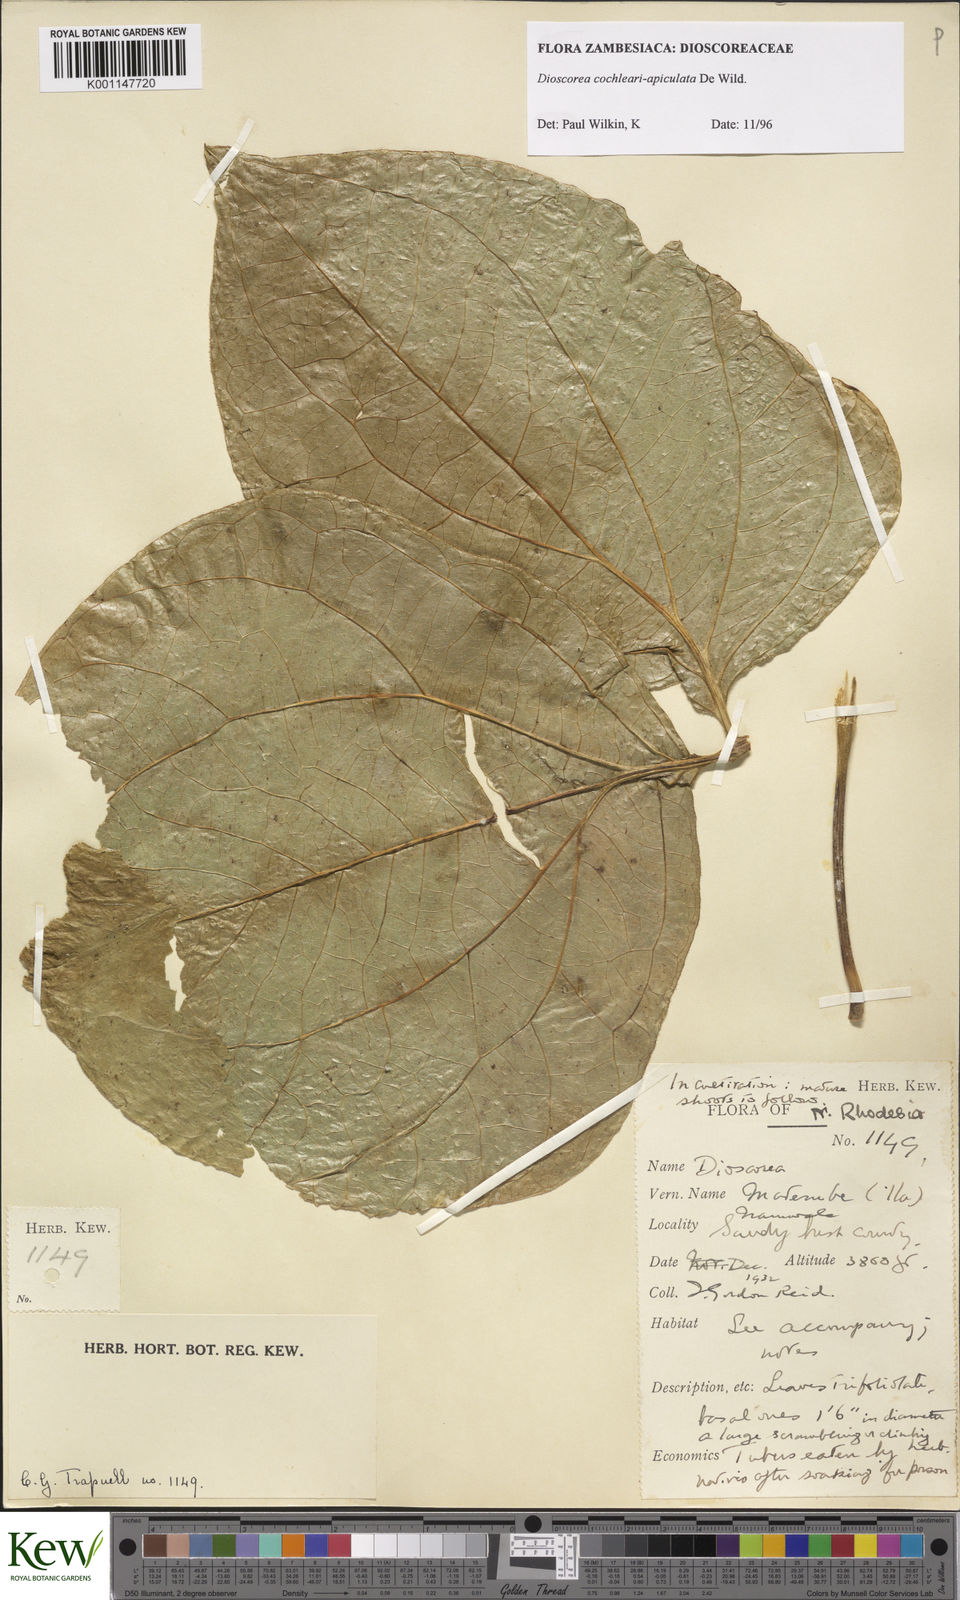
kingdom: Plantae
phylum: Tracheophyta
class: Liliopsida
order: Dioscoreales
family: Dioscoreaceae
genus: Dioscorea
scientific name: Dioscorea cochleariapiculata
